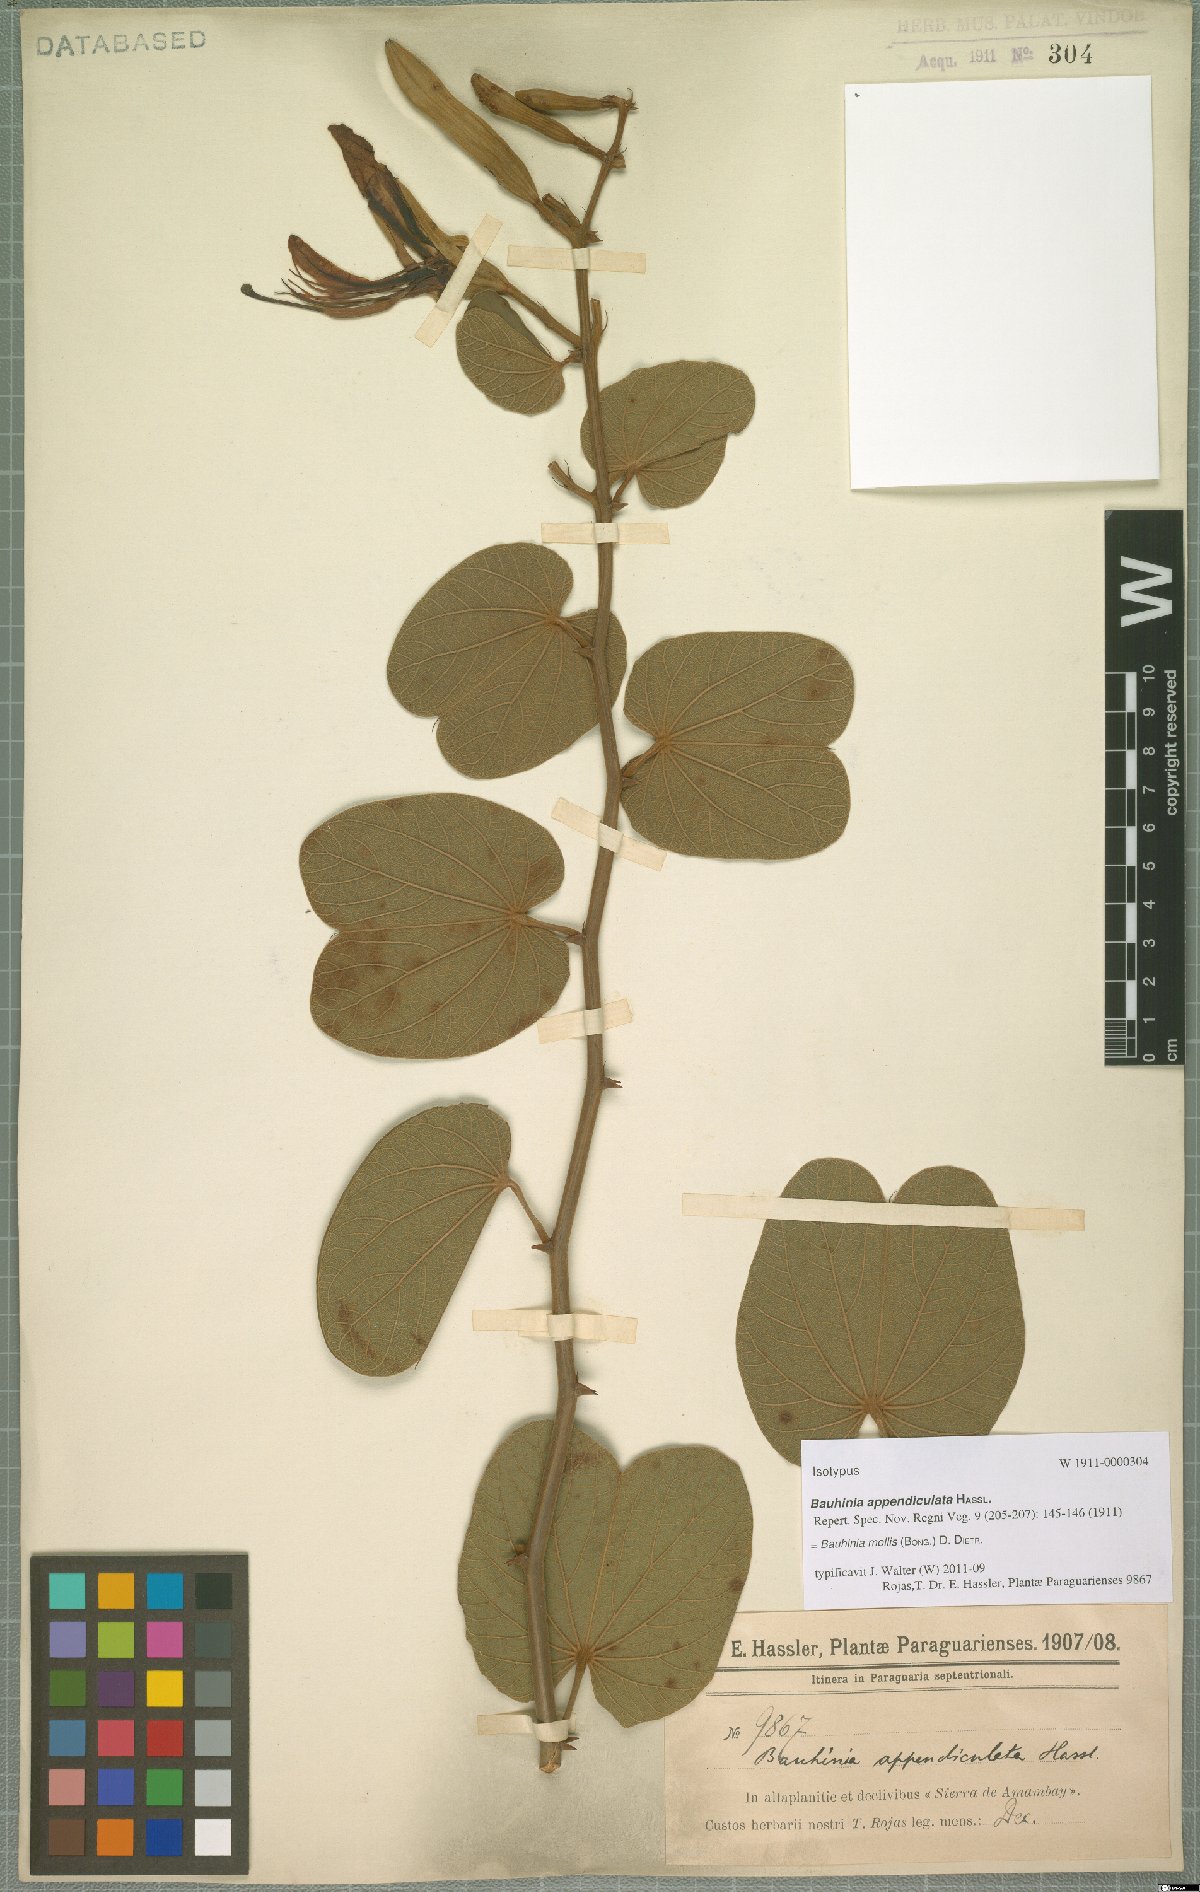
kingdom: Plantae
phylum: Tracheophyta
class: Magnoliopsida
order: Fabales
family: Fabaceae
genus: Bauhinia
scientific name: Bauhinia mollis
